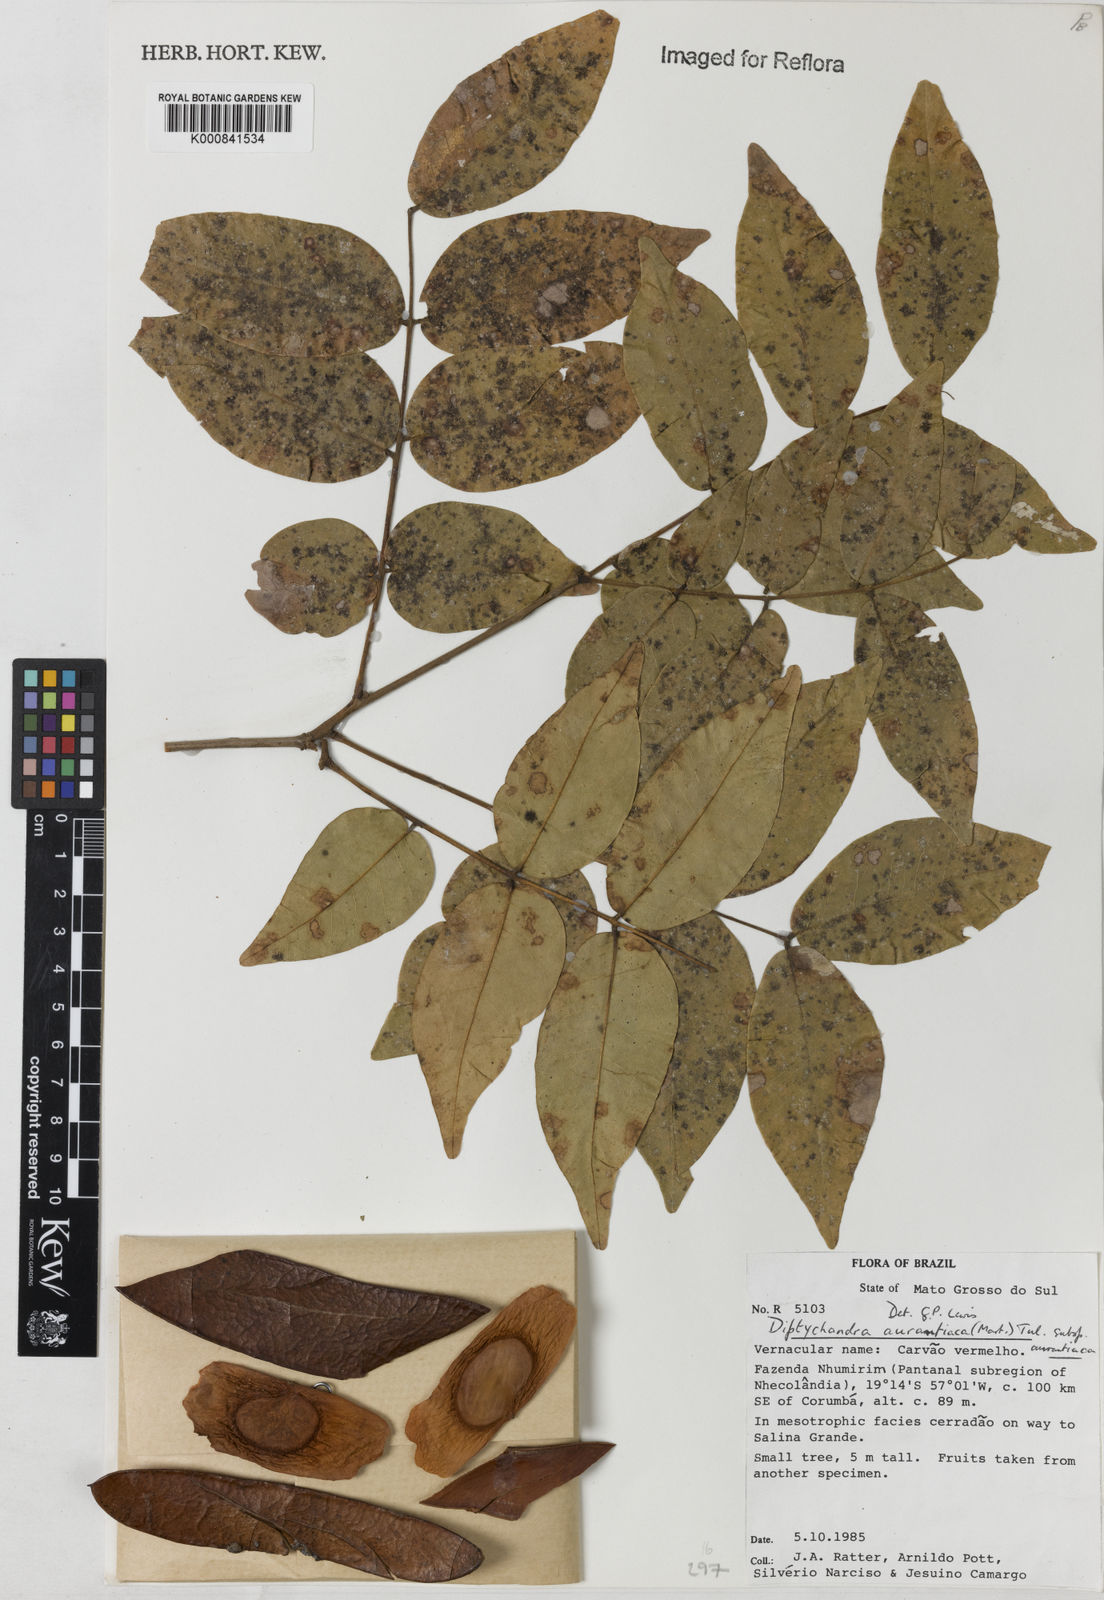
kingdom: Plantae
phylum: Tracheophyta
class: Magnoliopsida
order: Fabales
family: Fabaceae
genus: Diptychandra
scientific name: Diptychandra aurantiaca
